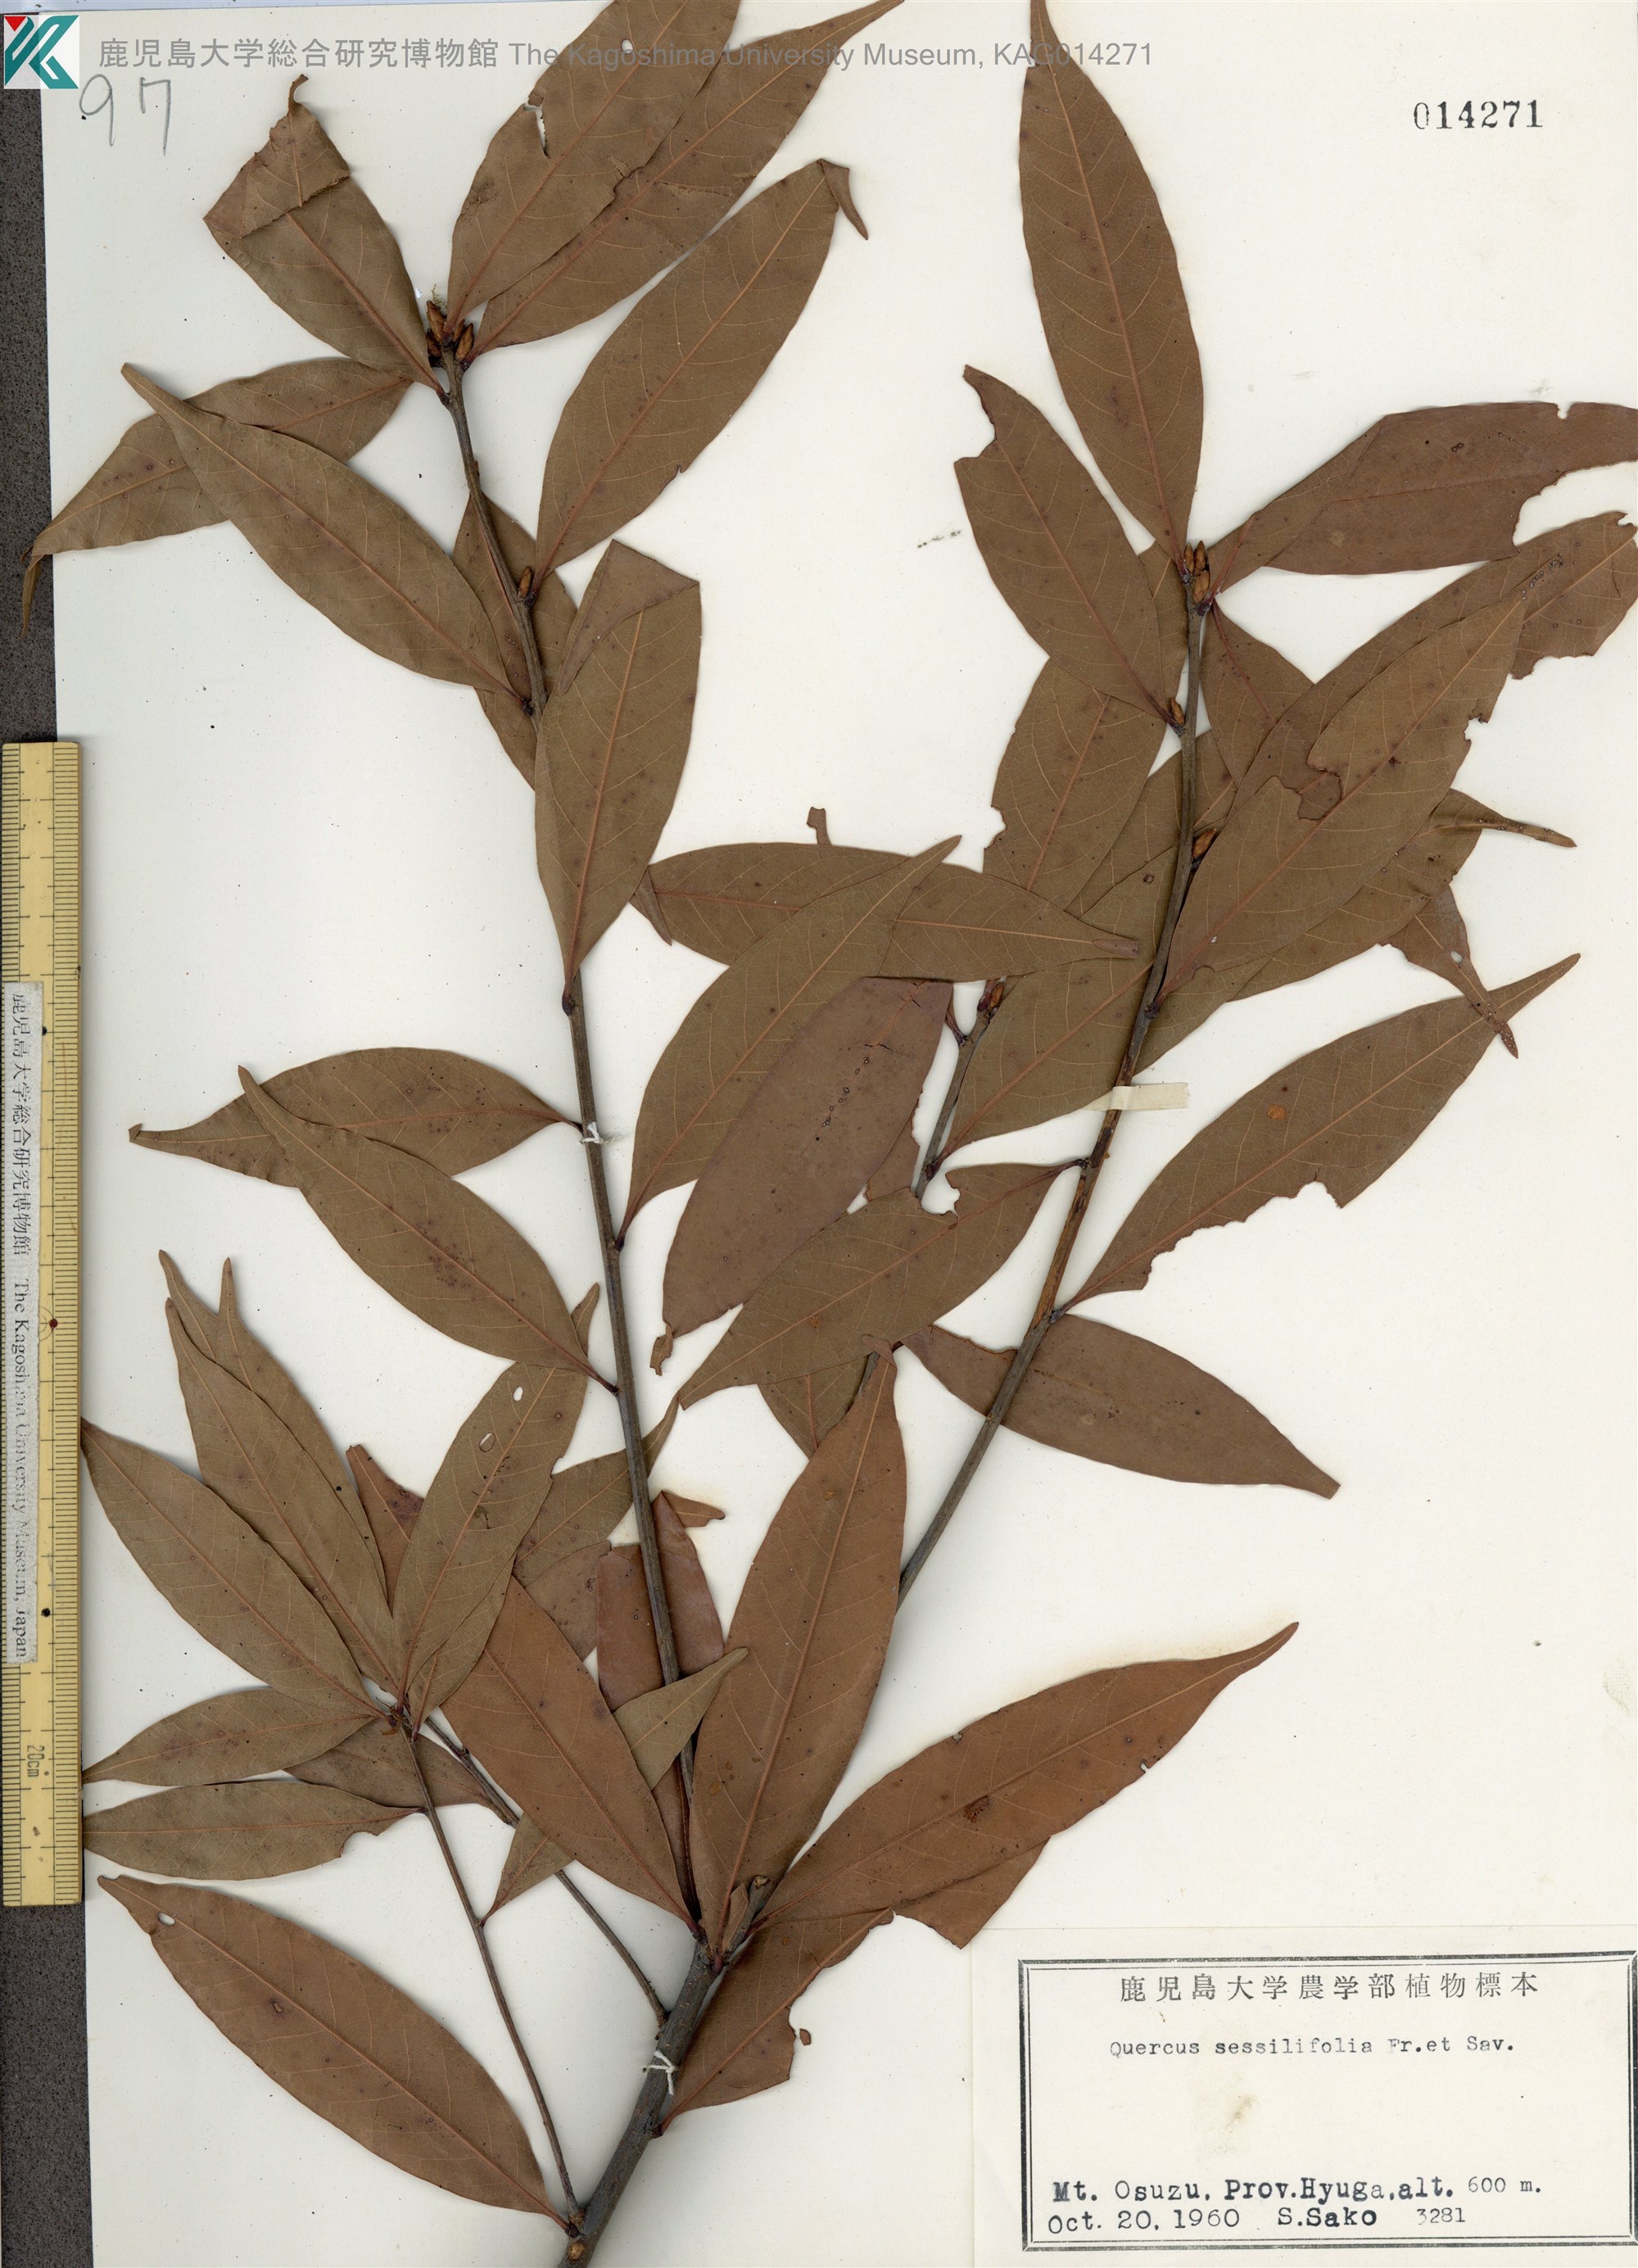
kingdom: Plantae
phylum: Tracheophyta
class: Magnoliopsida
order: Fagales
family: Fagaceae
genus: Quercus
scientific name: Quercus sessilifolia
